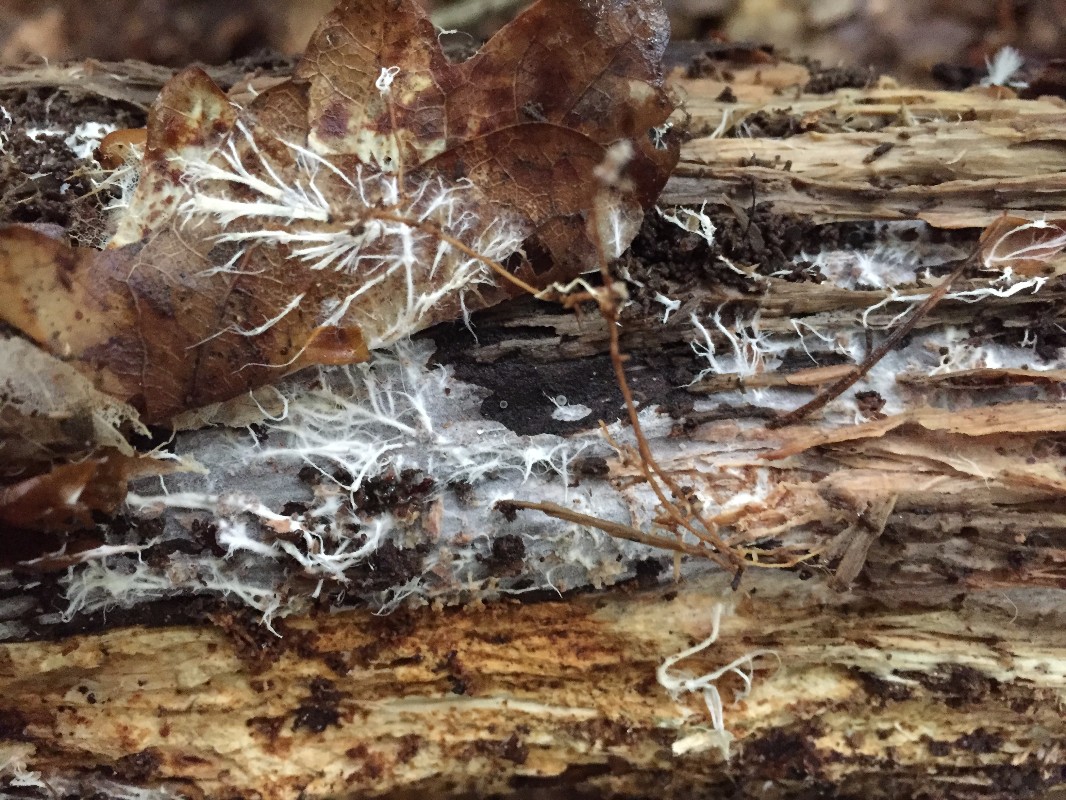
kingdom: Fungi
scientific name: Fungi
